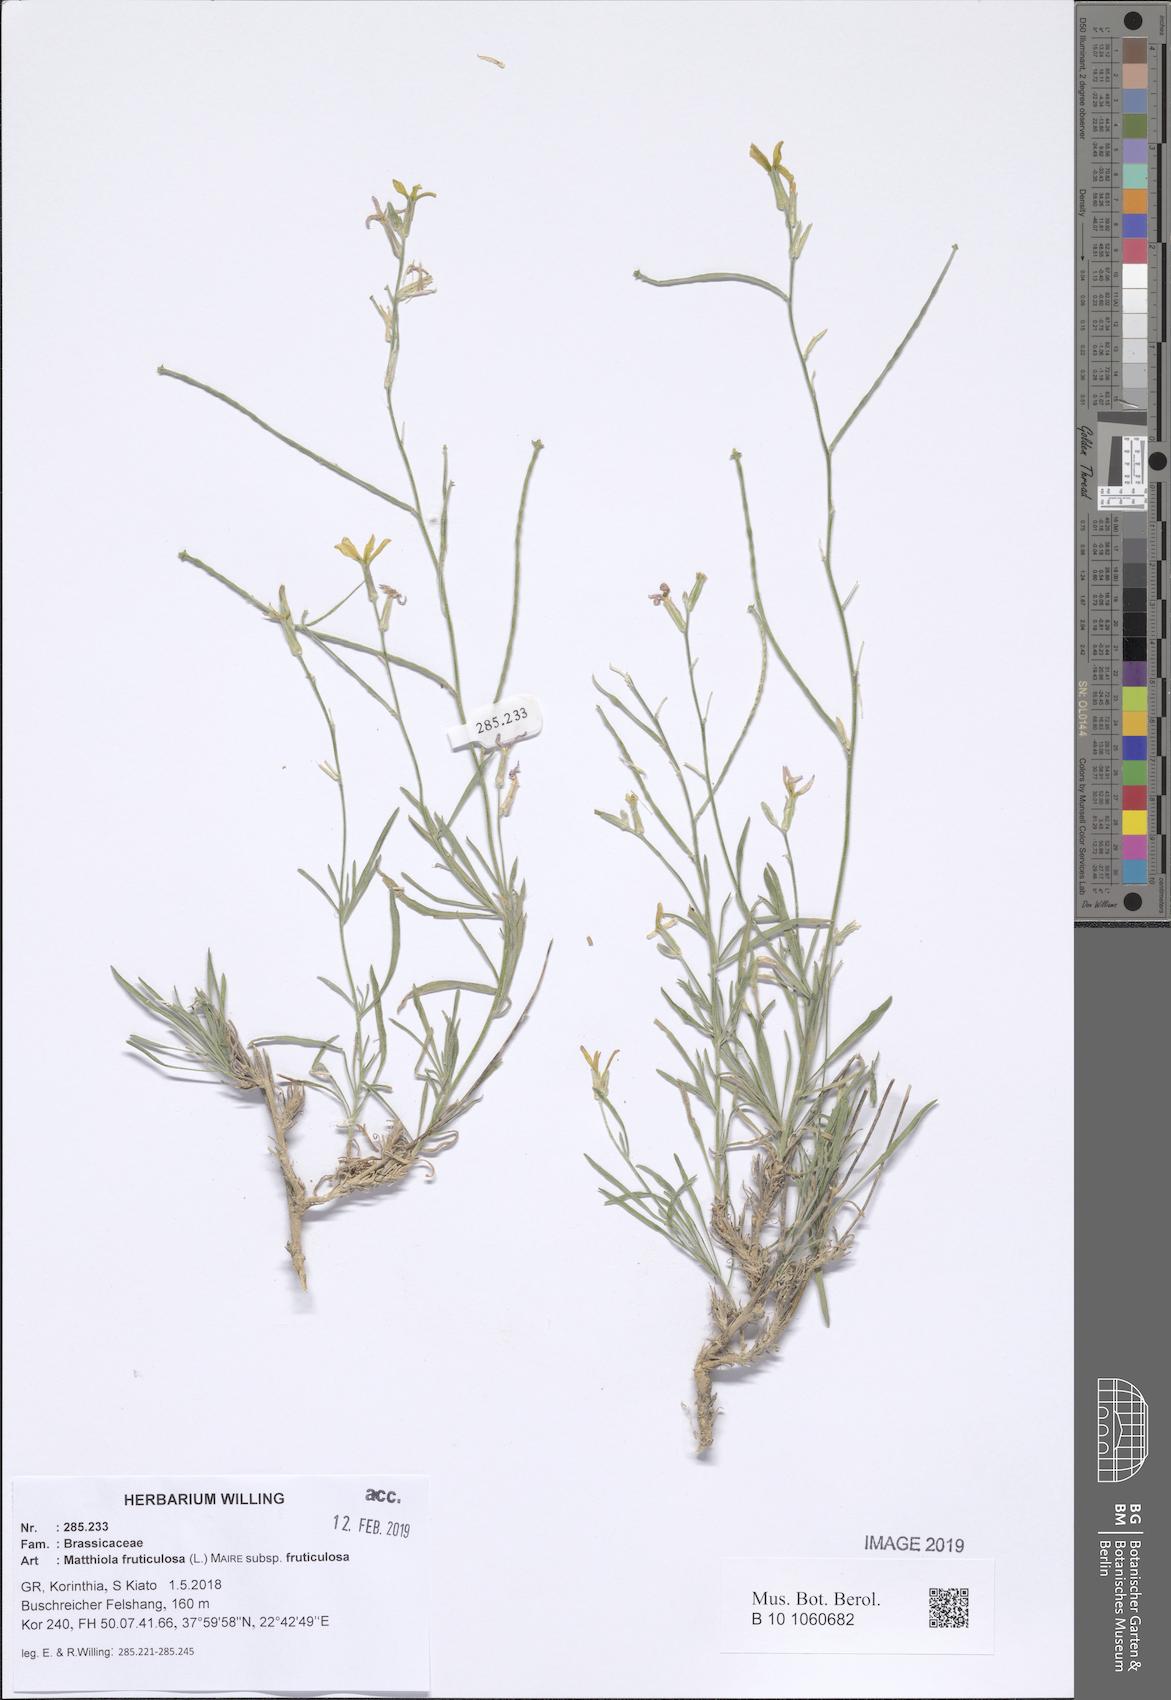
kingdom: Plantae
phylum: Tracheophyta
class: Magnoliopsida
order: Brassicales
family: Brassicaceae
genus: Matthiola
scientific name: Matthiola fruticulosa
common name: Sad stock
